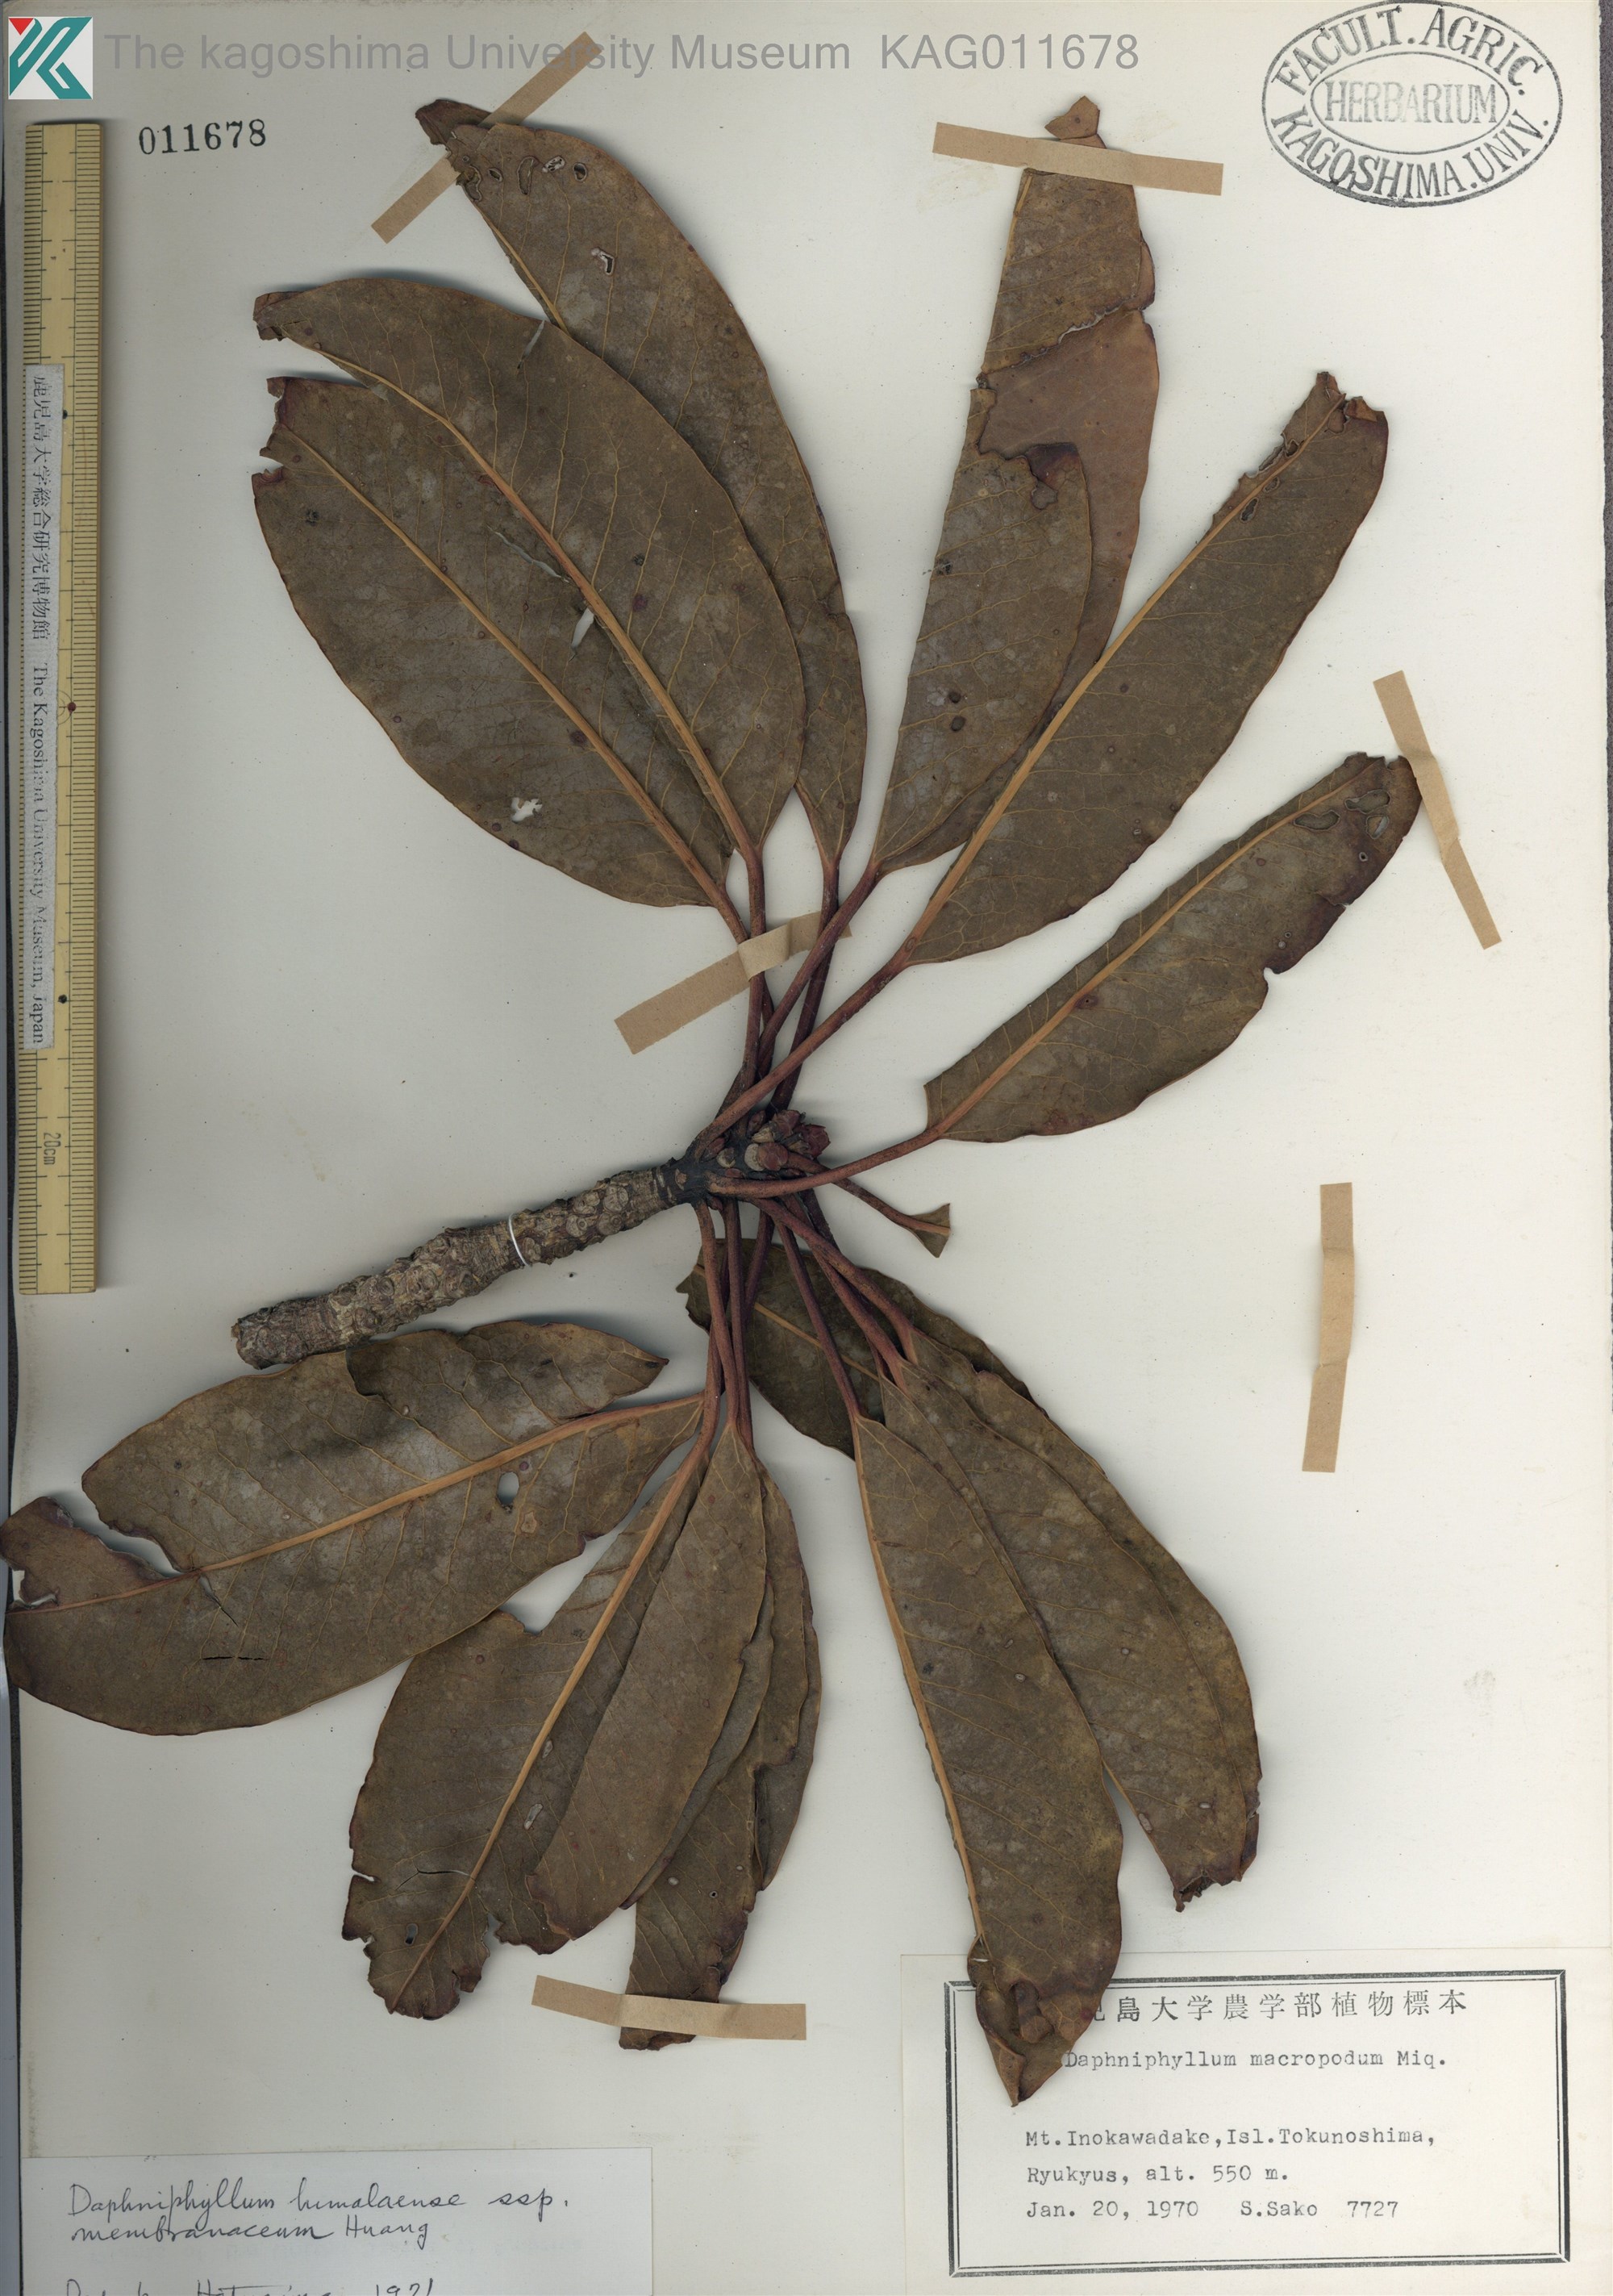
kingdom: Plantae
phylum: Tracheophyta
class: Magnoliopsida
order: Saxifragales
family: Daphniphyllaceae
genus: Daphniphyllum
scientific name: Daphniphyllum macropodum
